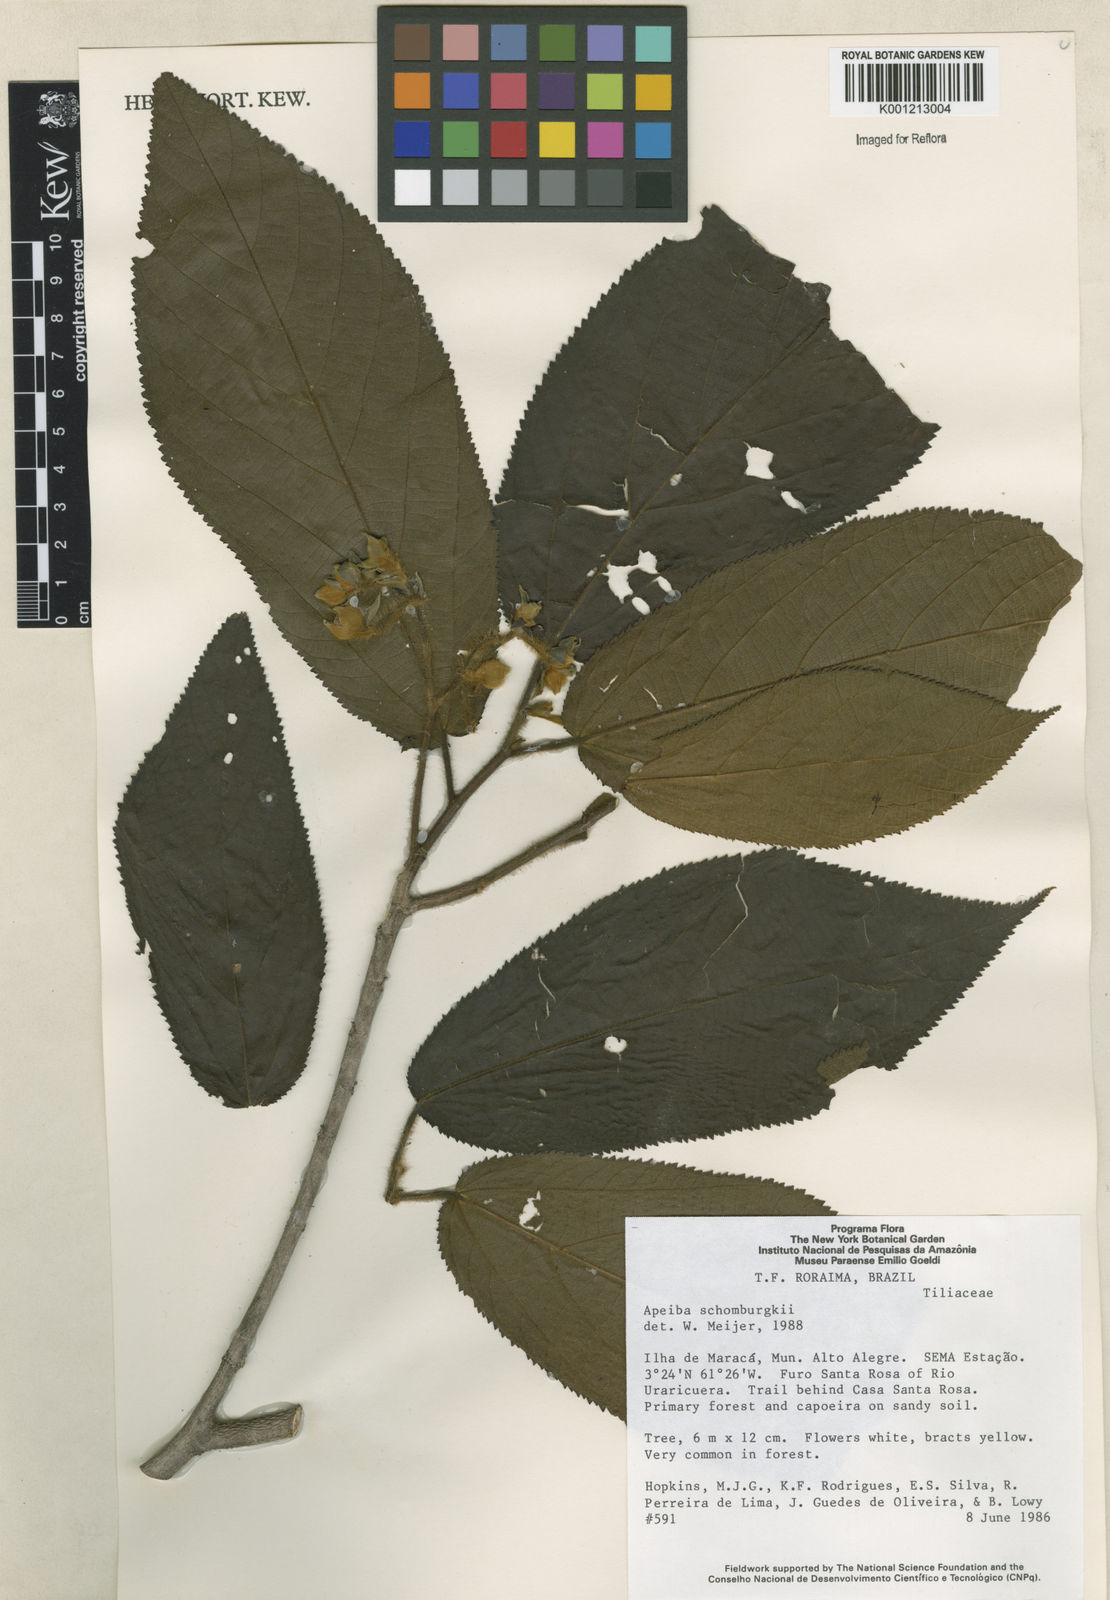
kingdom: Plantae
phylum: Tracheophyta
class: Magnoliopsida
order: Malvales
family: Malvaceae
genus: Apeiba
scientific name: Apeiba schomburgkii
